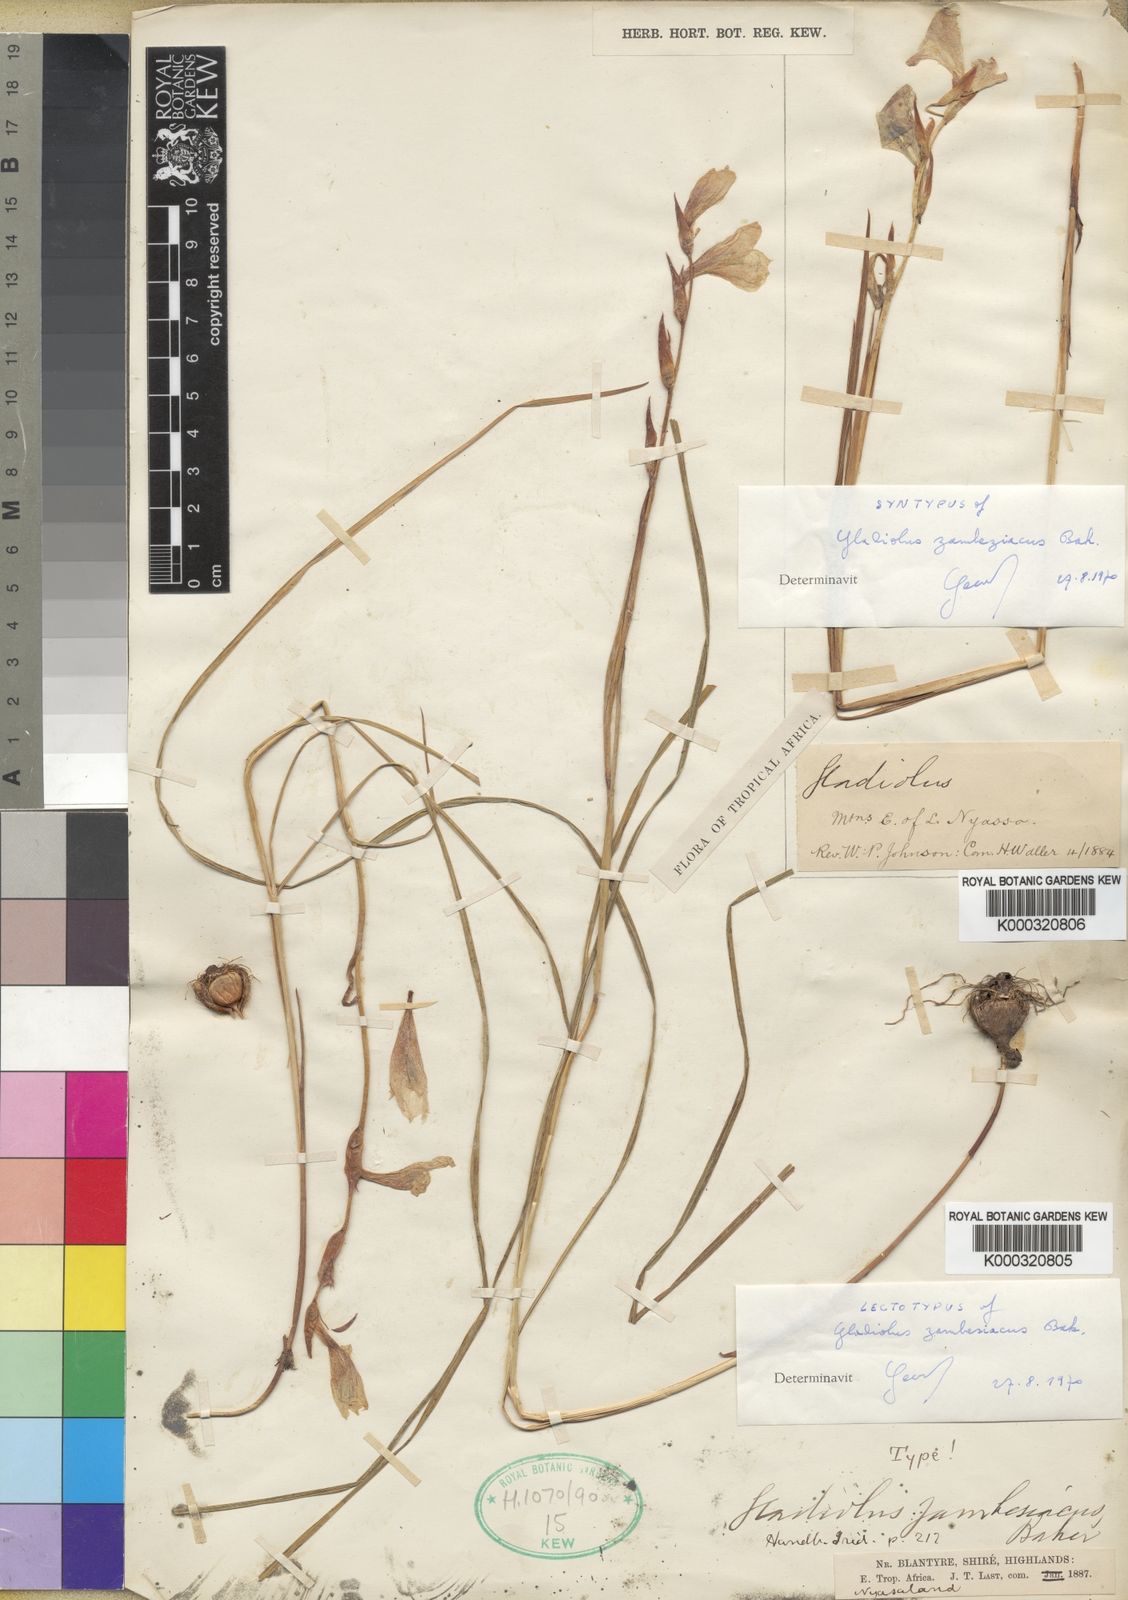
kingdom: Plantae
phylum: Tracheophyta
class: Liliopsida
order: Asparagales
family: Iridaceae
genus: Gladiolus
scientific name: Gladiolus zambesiacus
